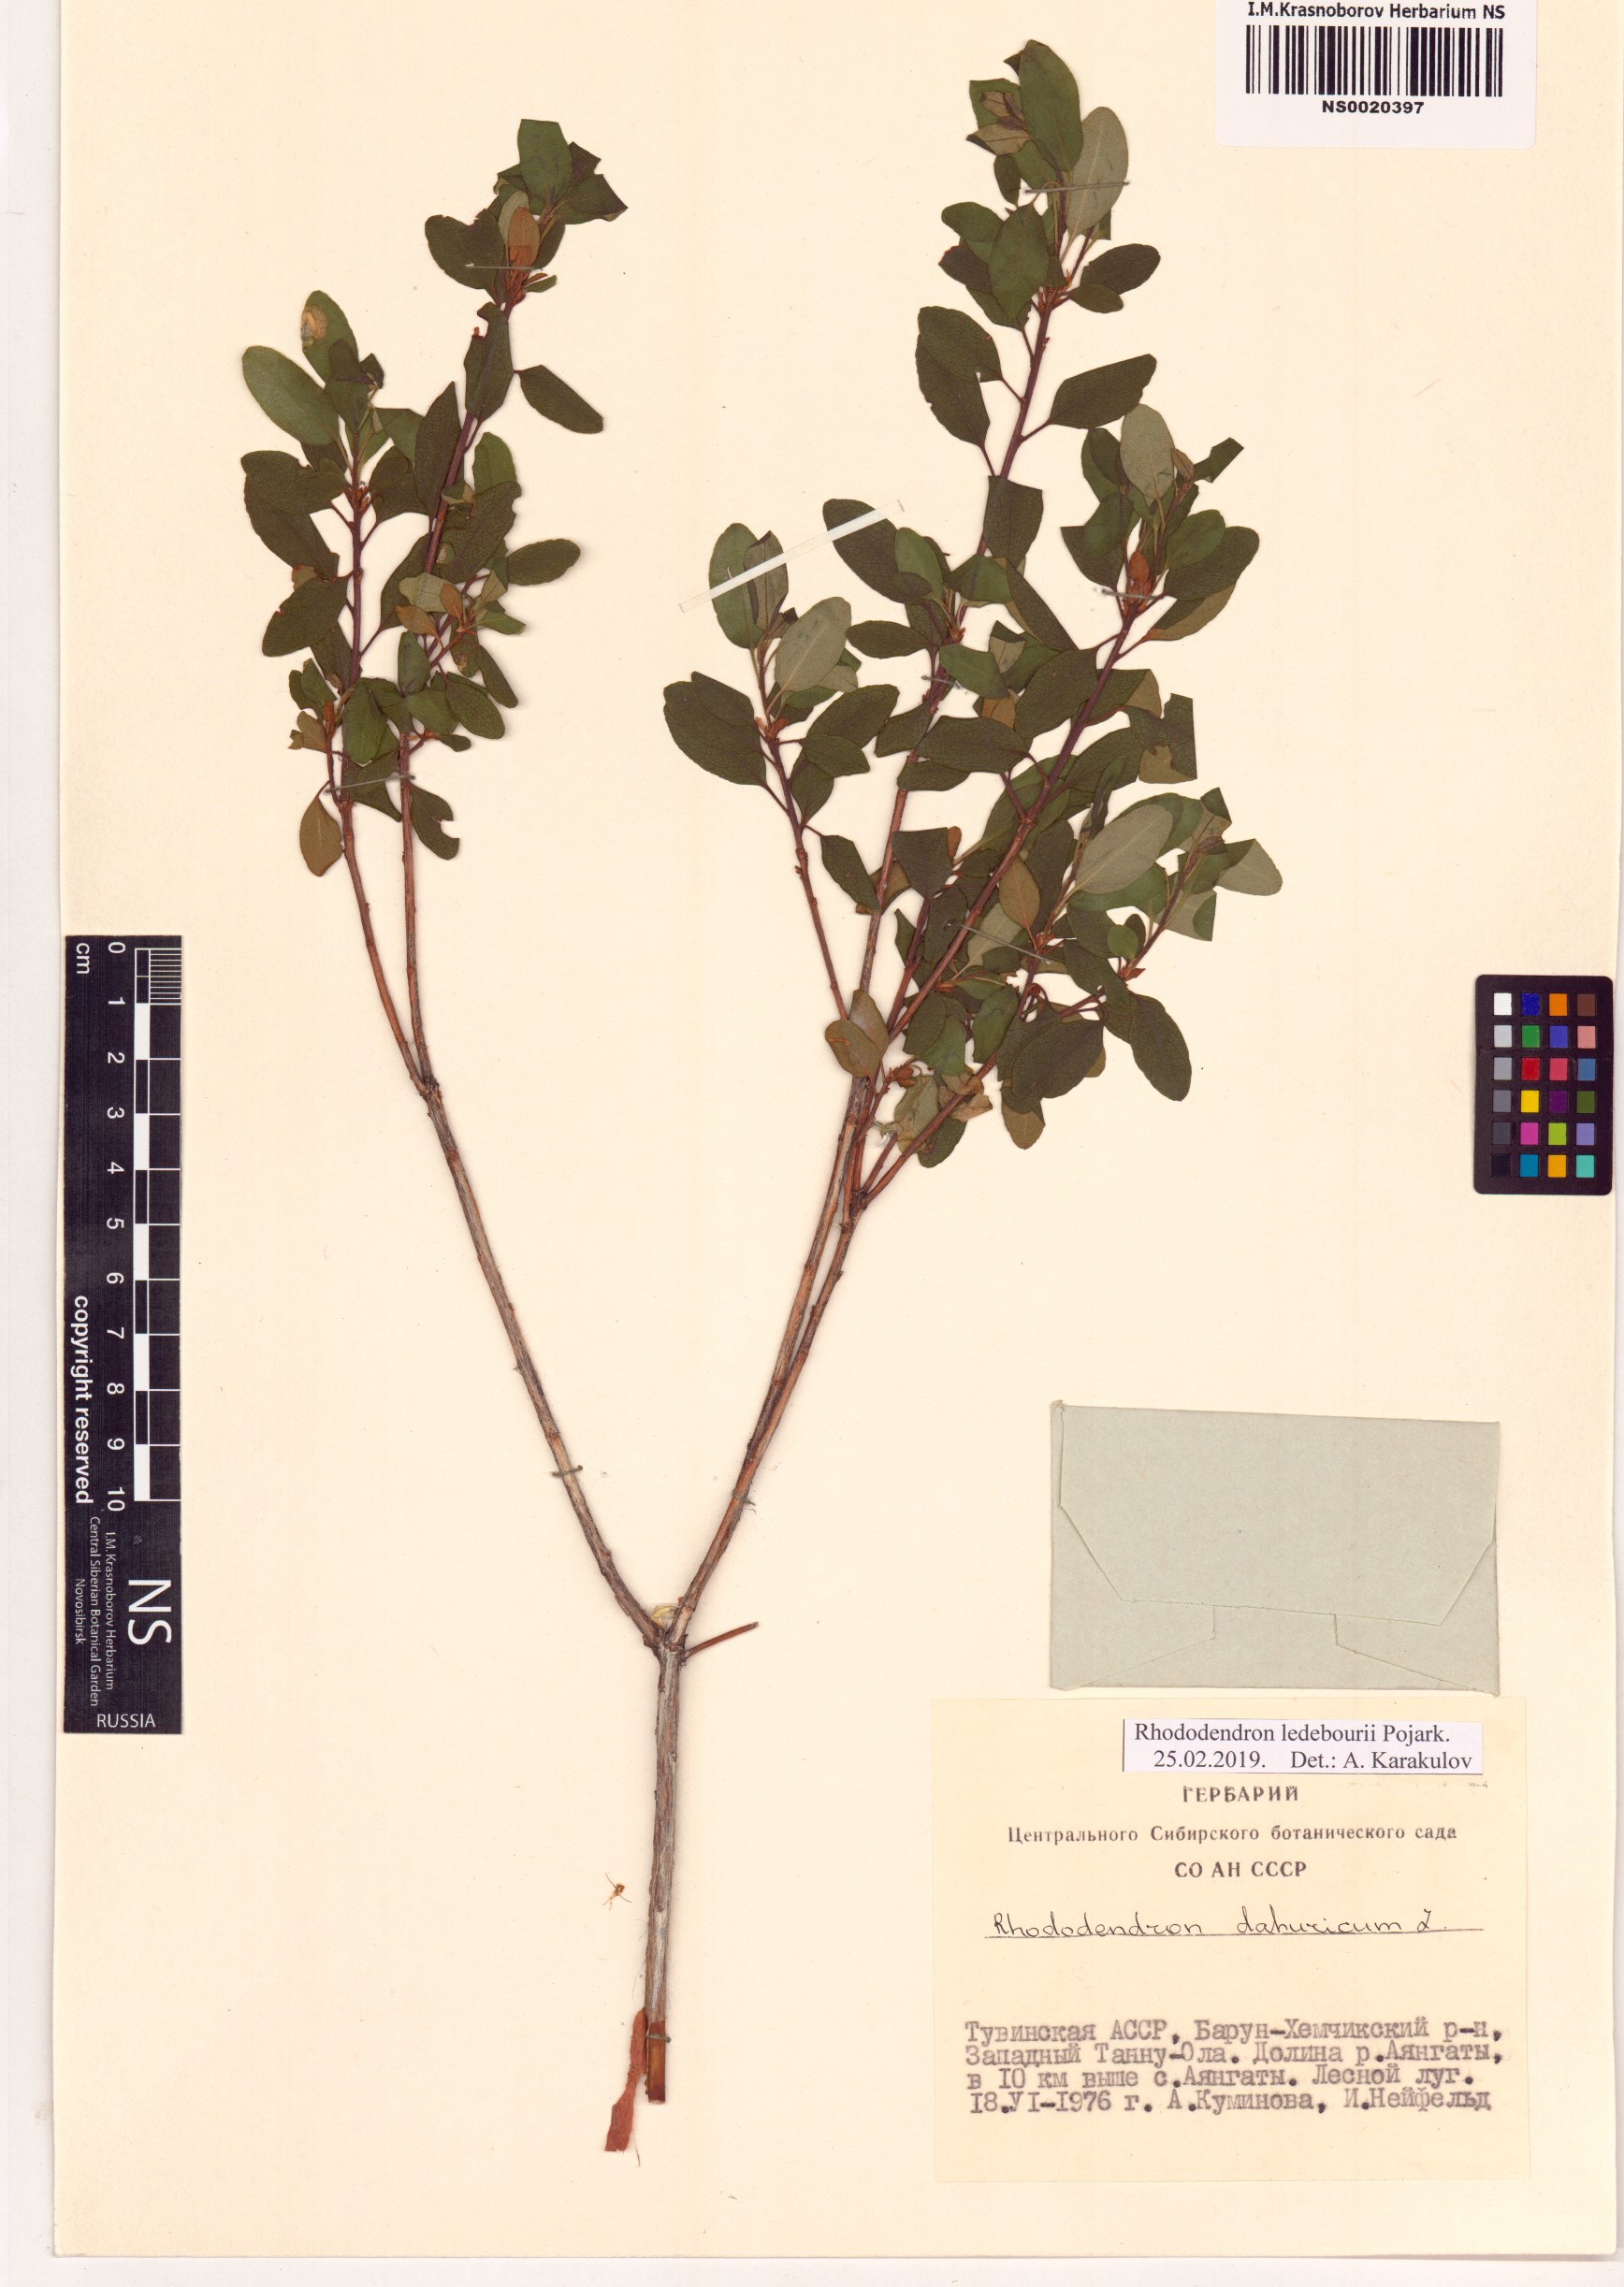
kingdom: Plantae
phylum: Tracheophyta
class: Magnoliopsida
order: Ericales
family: Ericaceae
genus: Rhododendron
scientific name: Rhododendron dauricum
